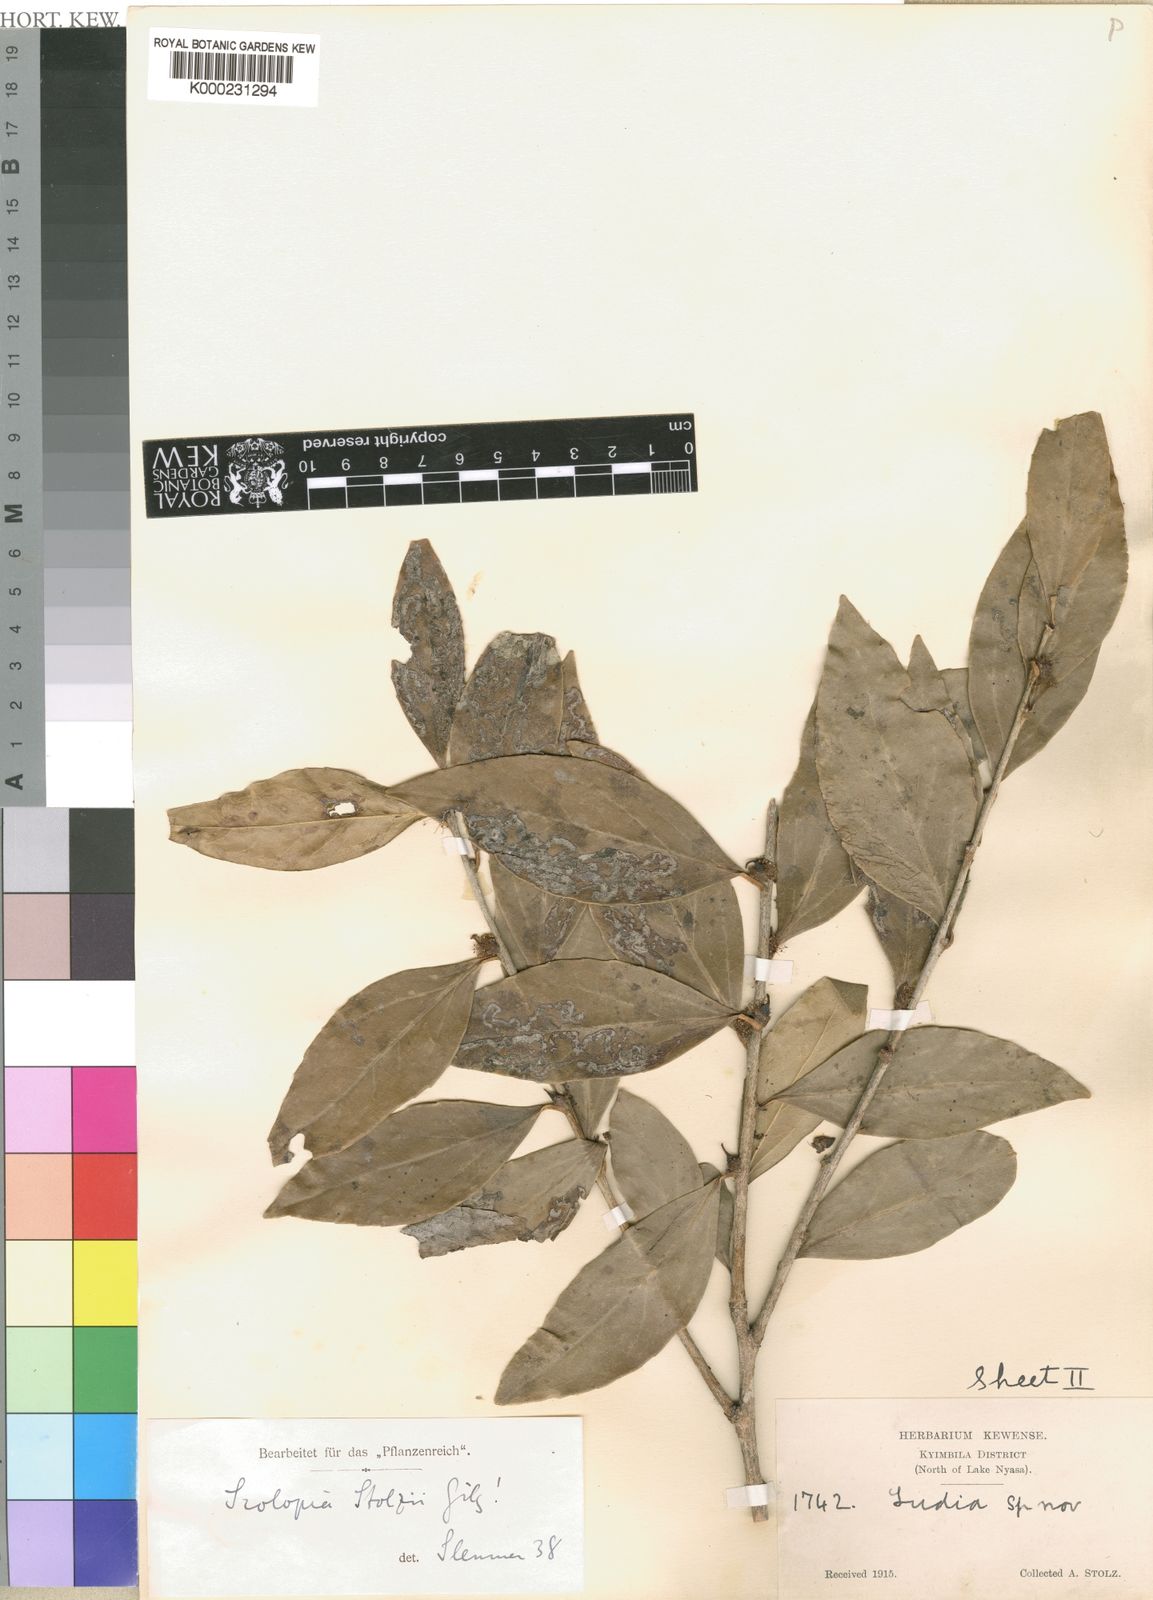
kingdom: Plantae
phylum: Tracheophyta
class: Magnoliopsida
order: Malpighiales
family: Salicaceae
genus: Scolopia
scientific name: Scolopia stolzii
